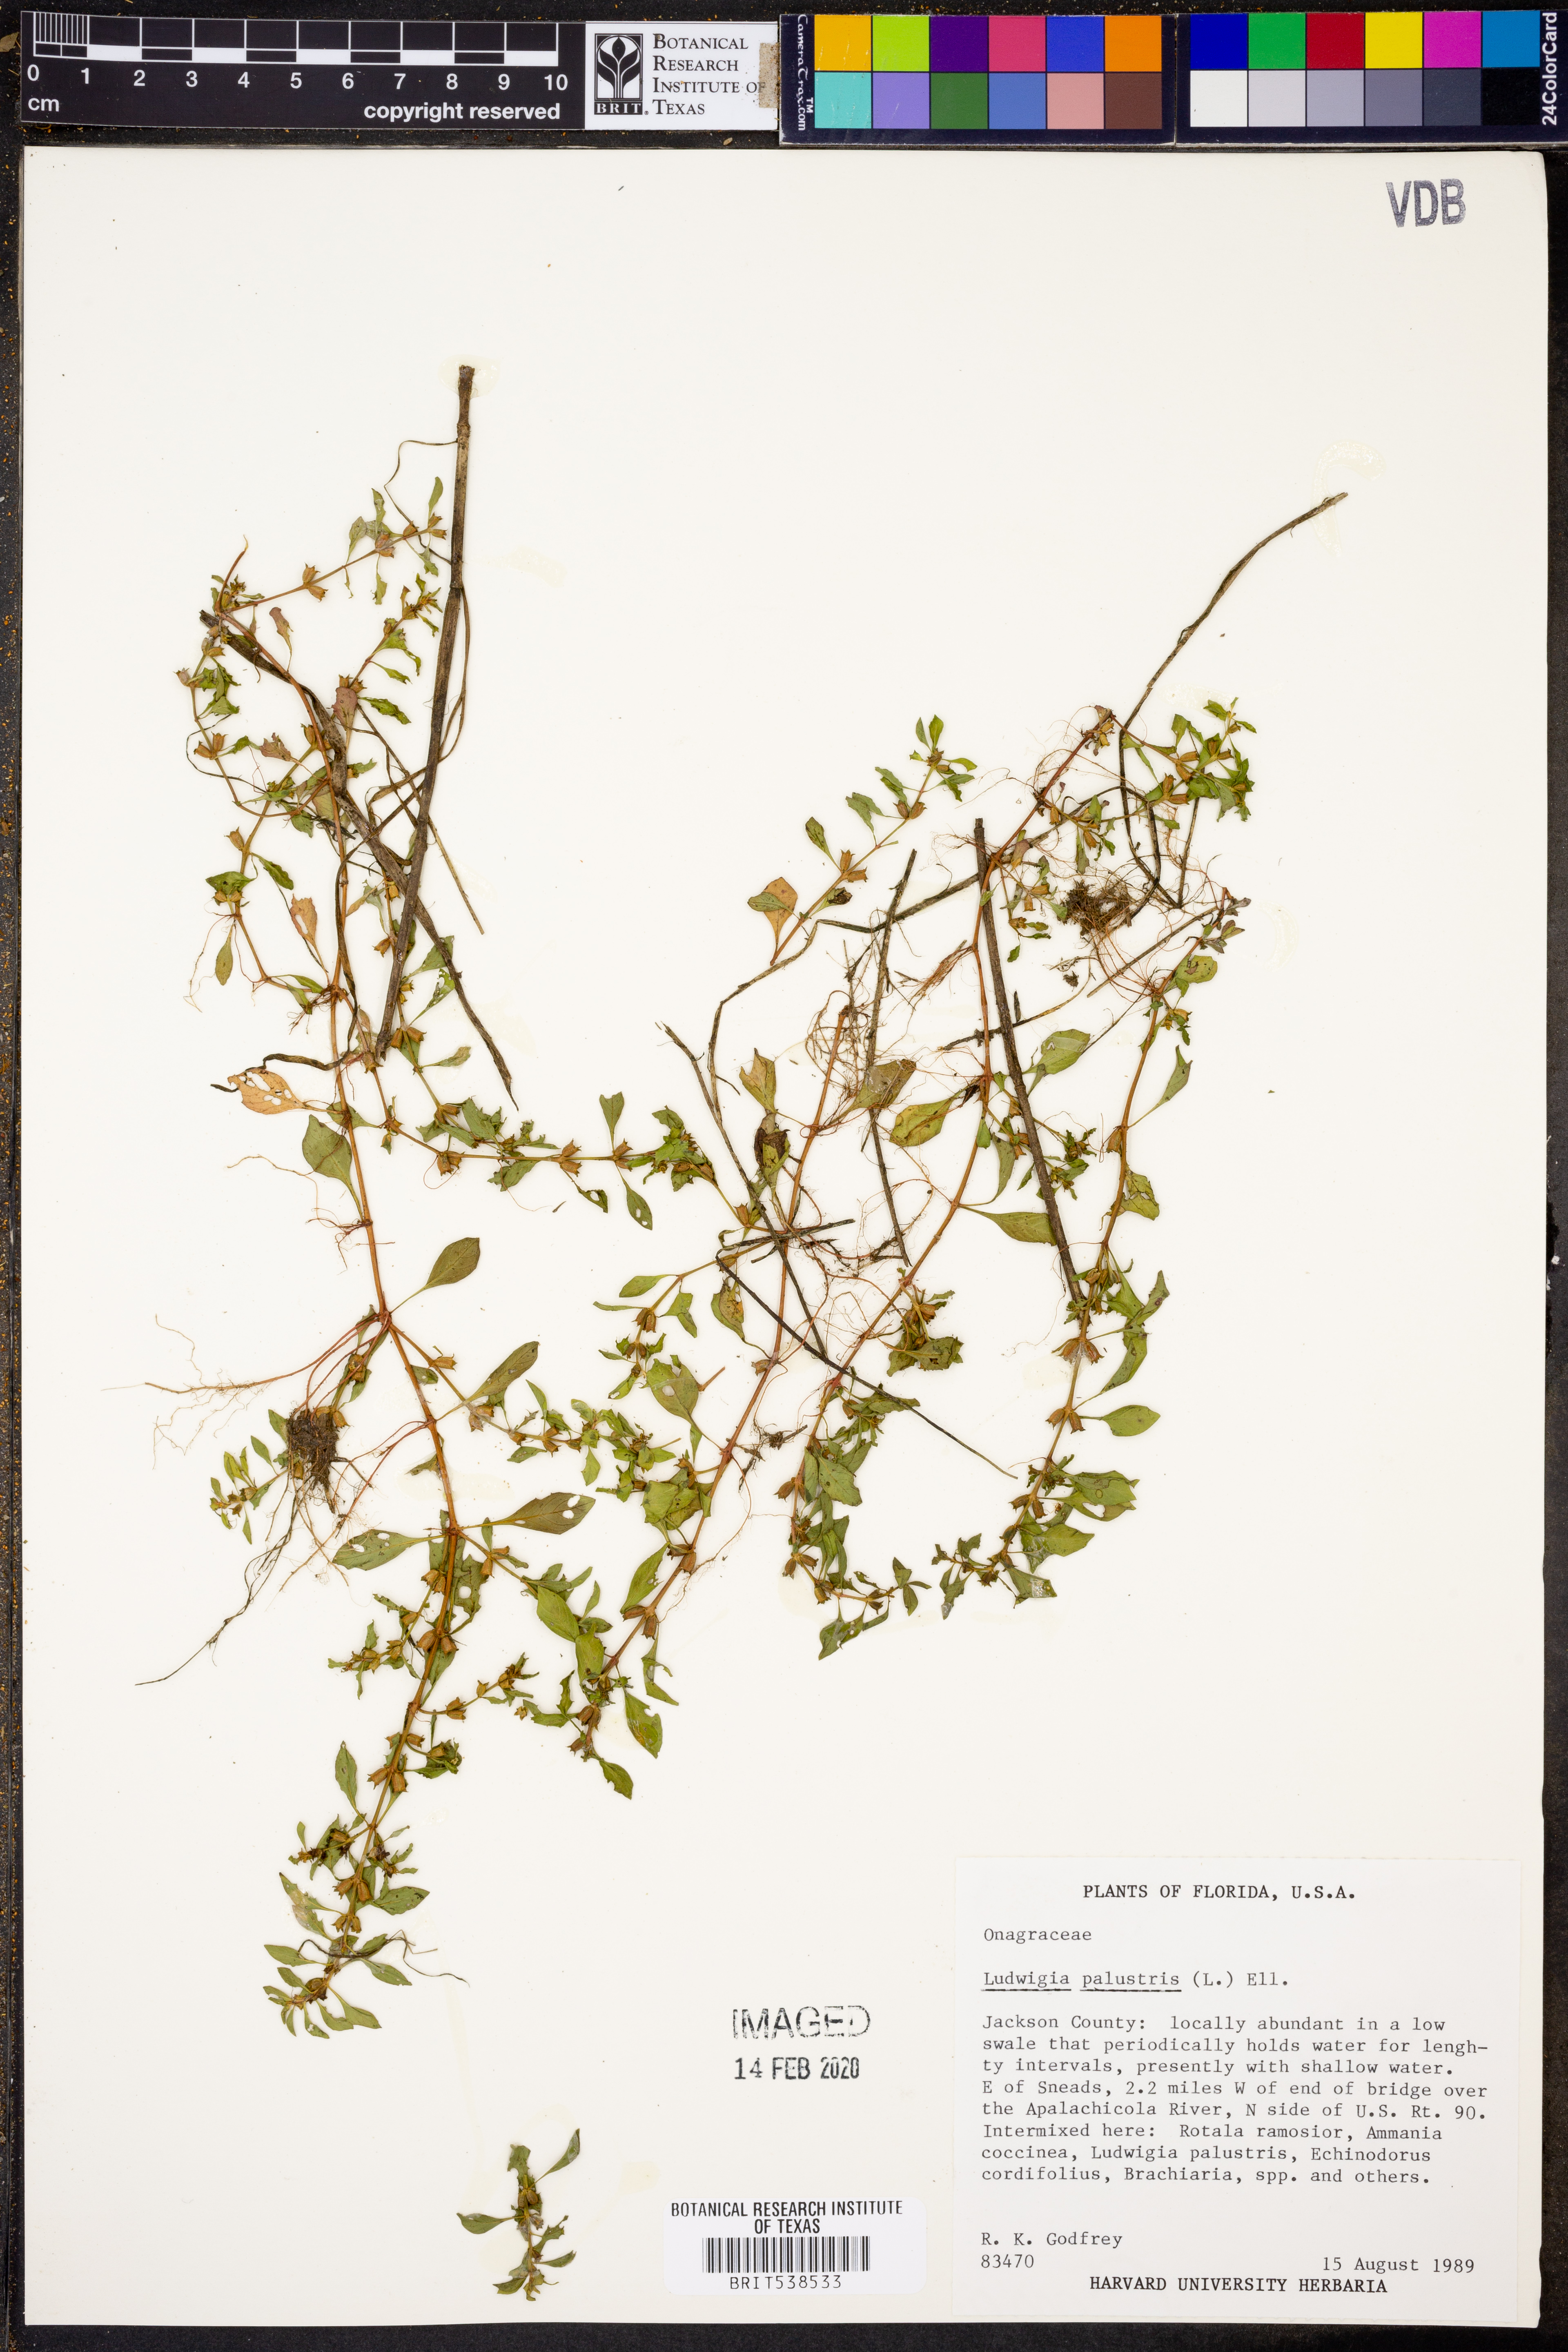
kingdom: Plantae
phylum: Tracheophyta
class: Magnoliopsida
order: Myrtales
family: Onagraceae
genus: Ludwigia
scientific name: Ludwigia palustris
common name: Hampshire-purslane
